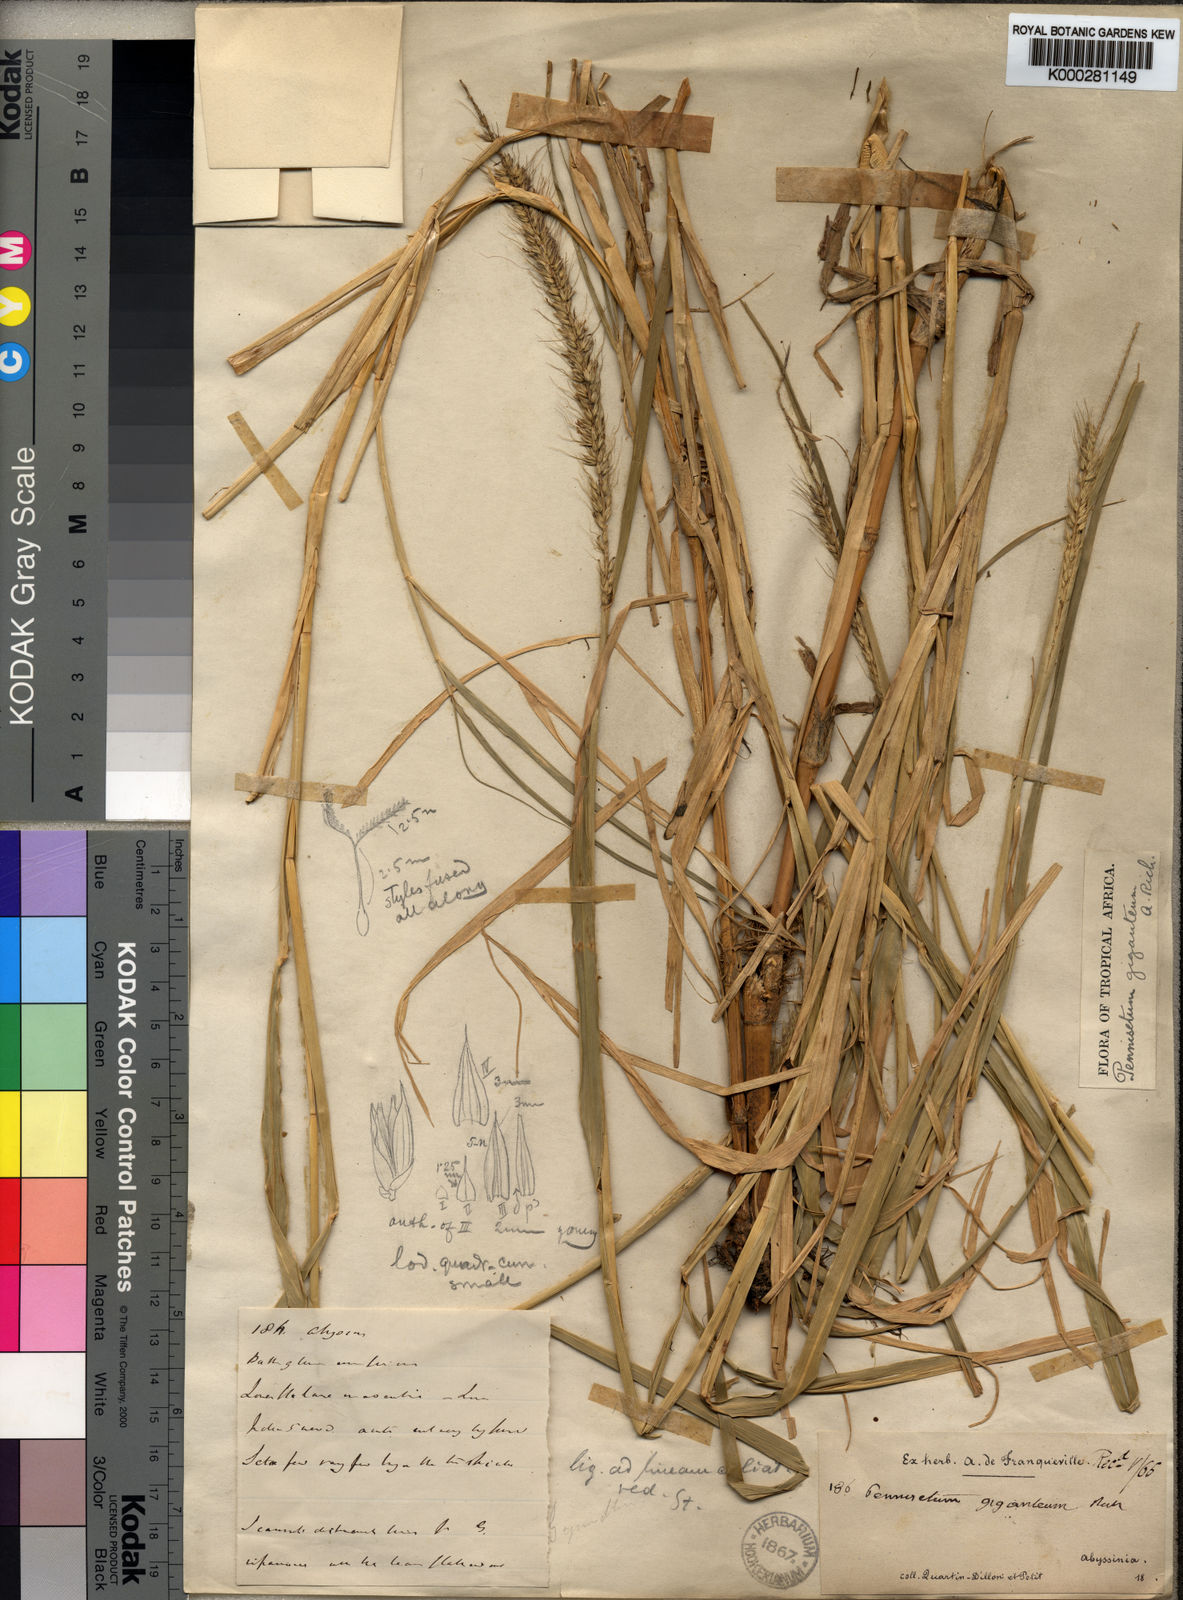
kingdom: Plantae
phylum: Tracheophyta
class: Liliopsida
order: Poales
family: Poaceae
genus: Cenchrus
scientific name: Cenchrus americanus
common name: Pearl millet
